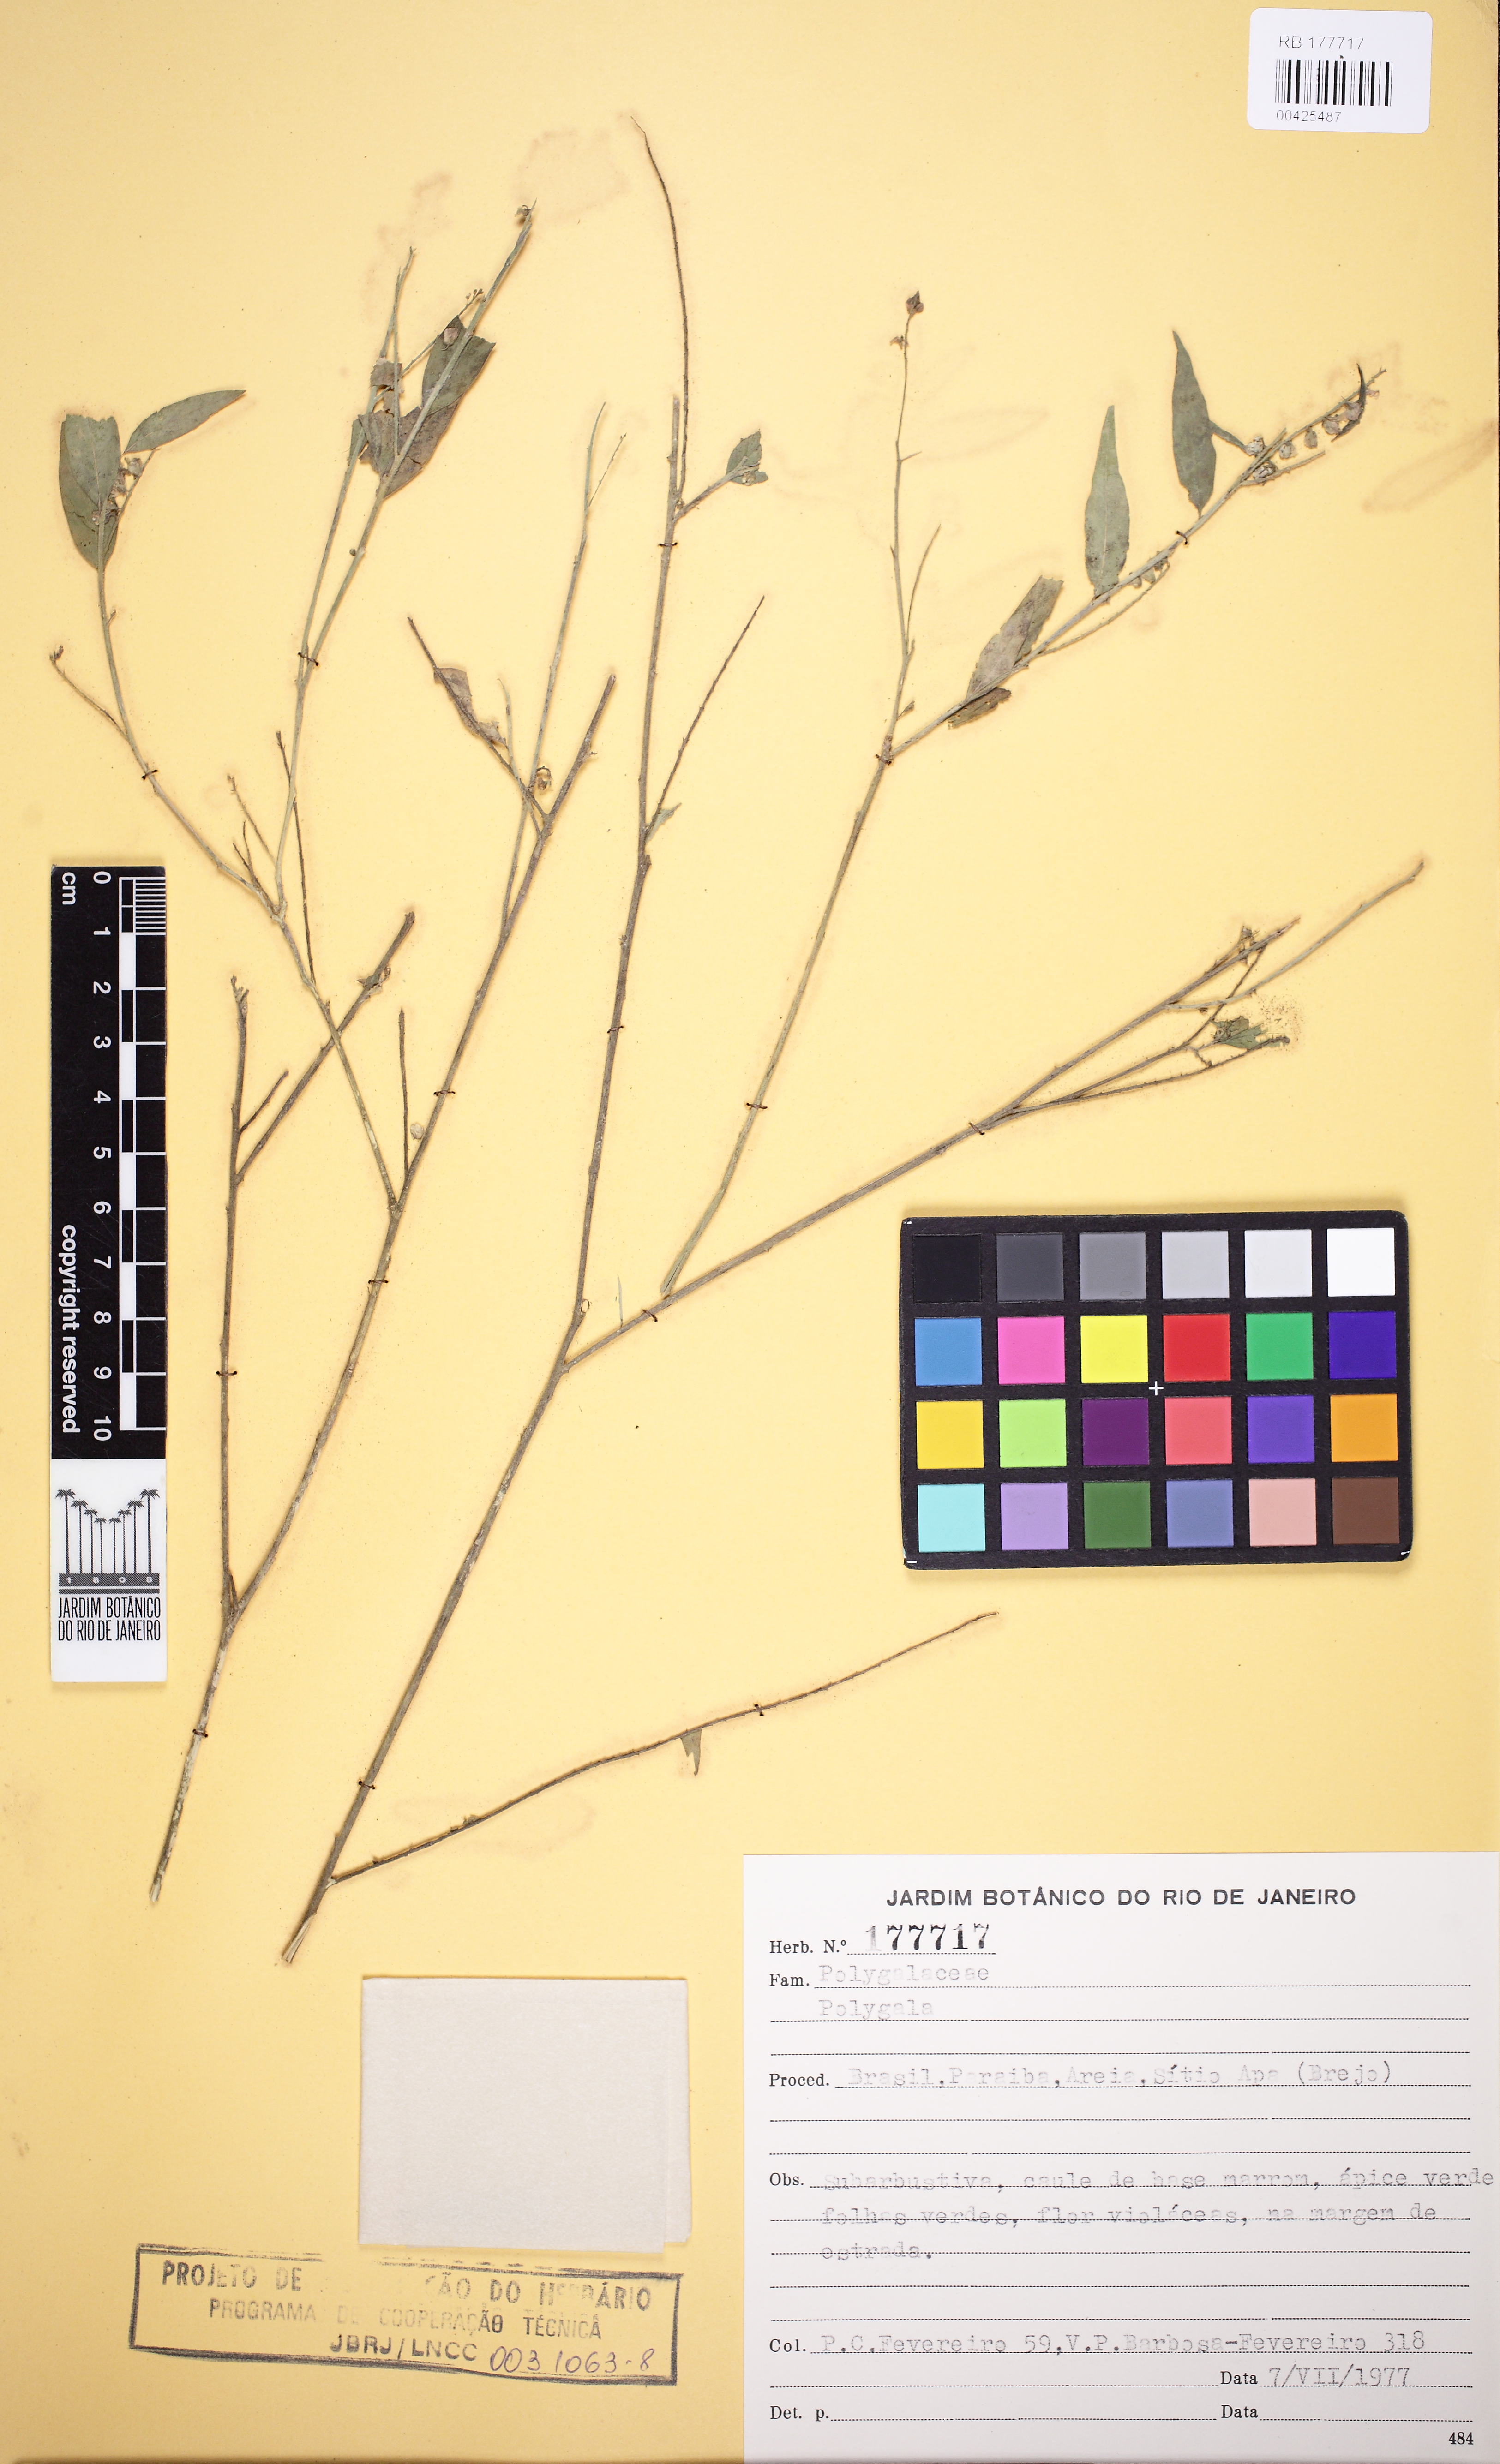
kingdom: Plantae
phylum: Tracheophyta
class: Magnoliopsida
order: Fabales
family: Polygalaceae
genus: Asemeia
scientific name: Asemeia
